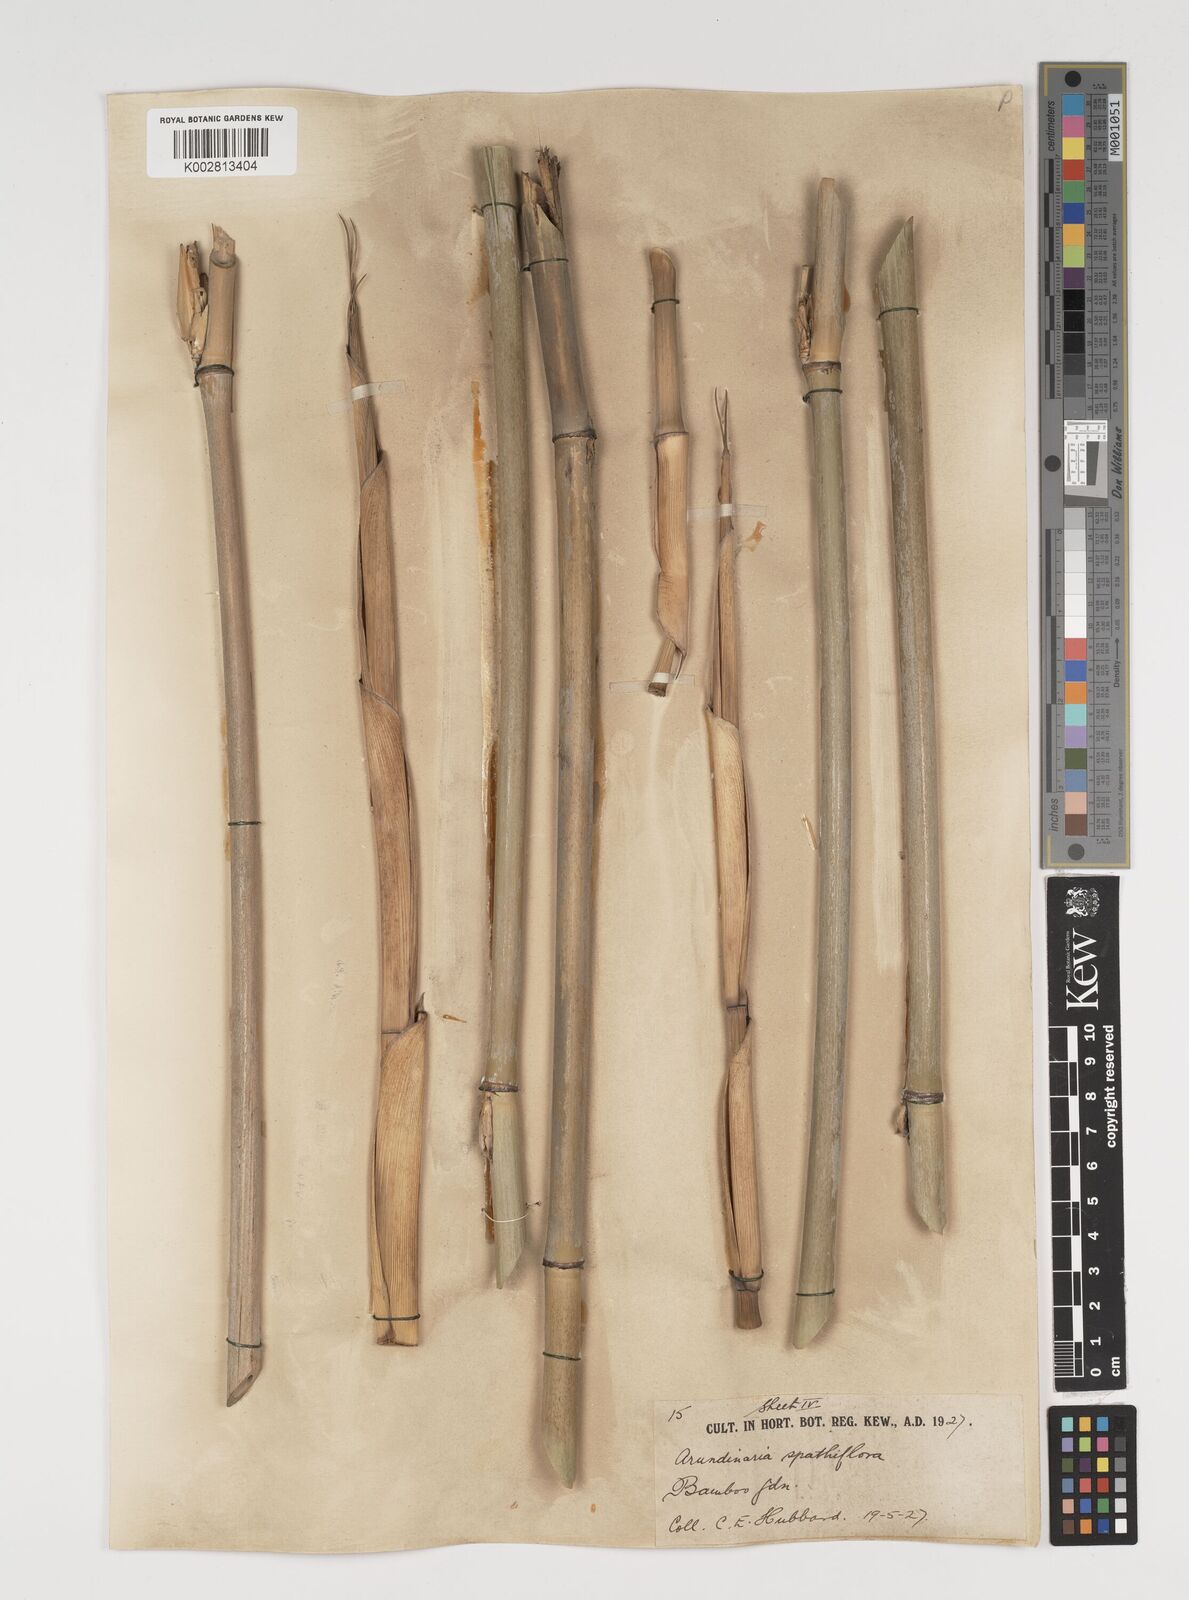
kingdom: Plantae
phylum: Tracheophyta
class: Liliopsida
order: Poales
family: Poaceae
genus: Thamnocalamus
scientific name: Thamnocalamus spathiflorus
